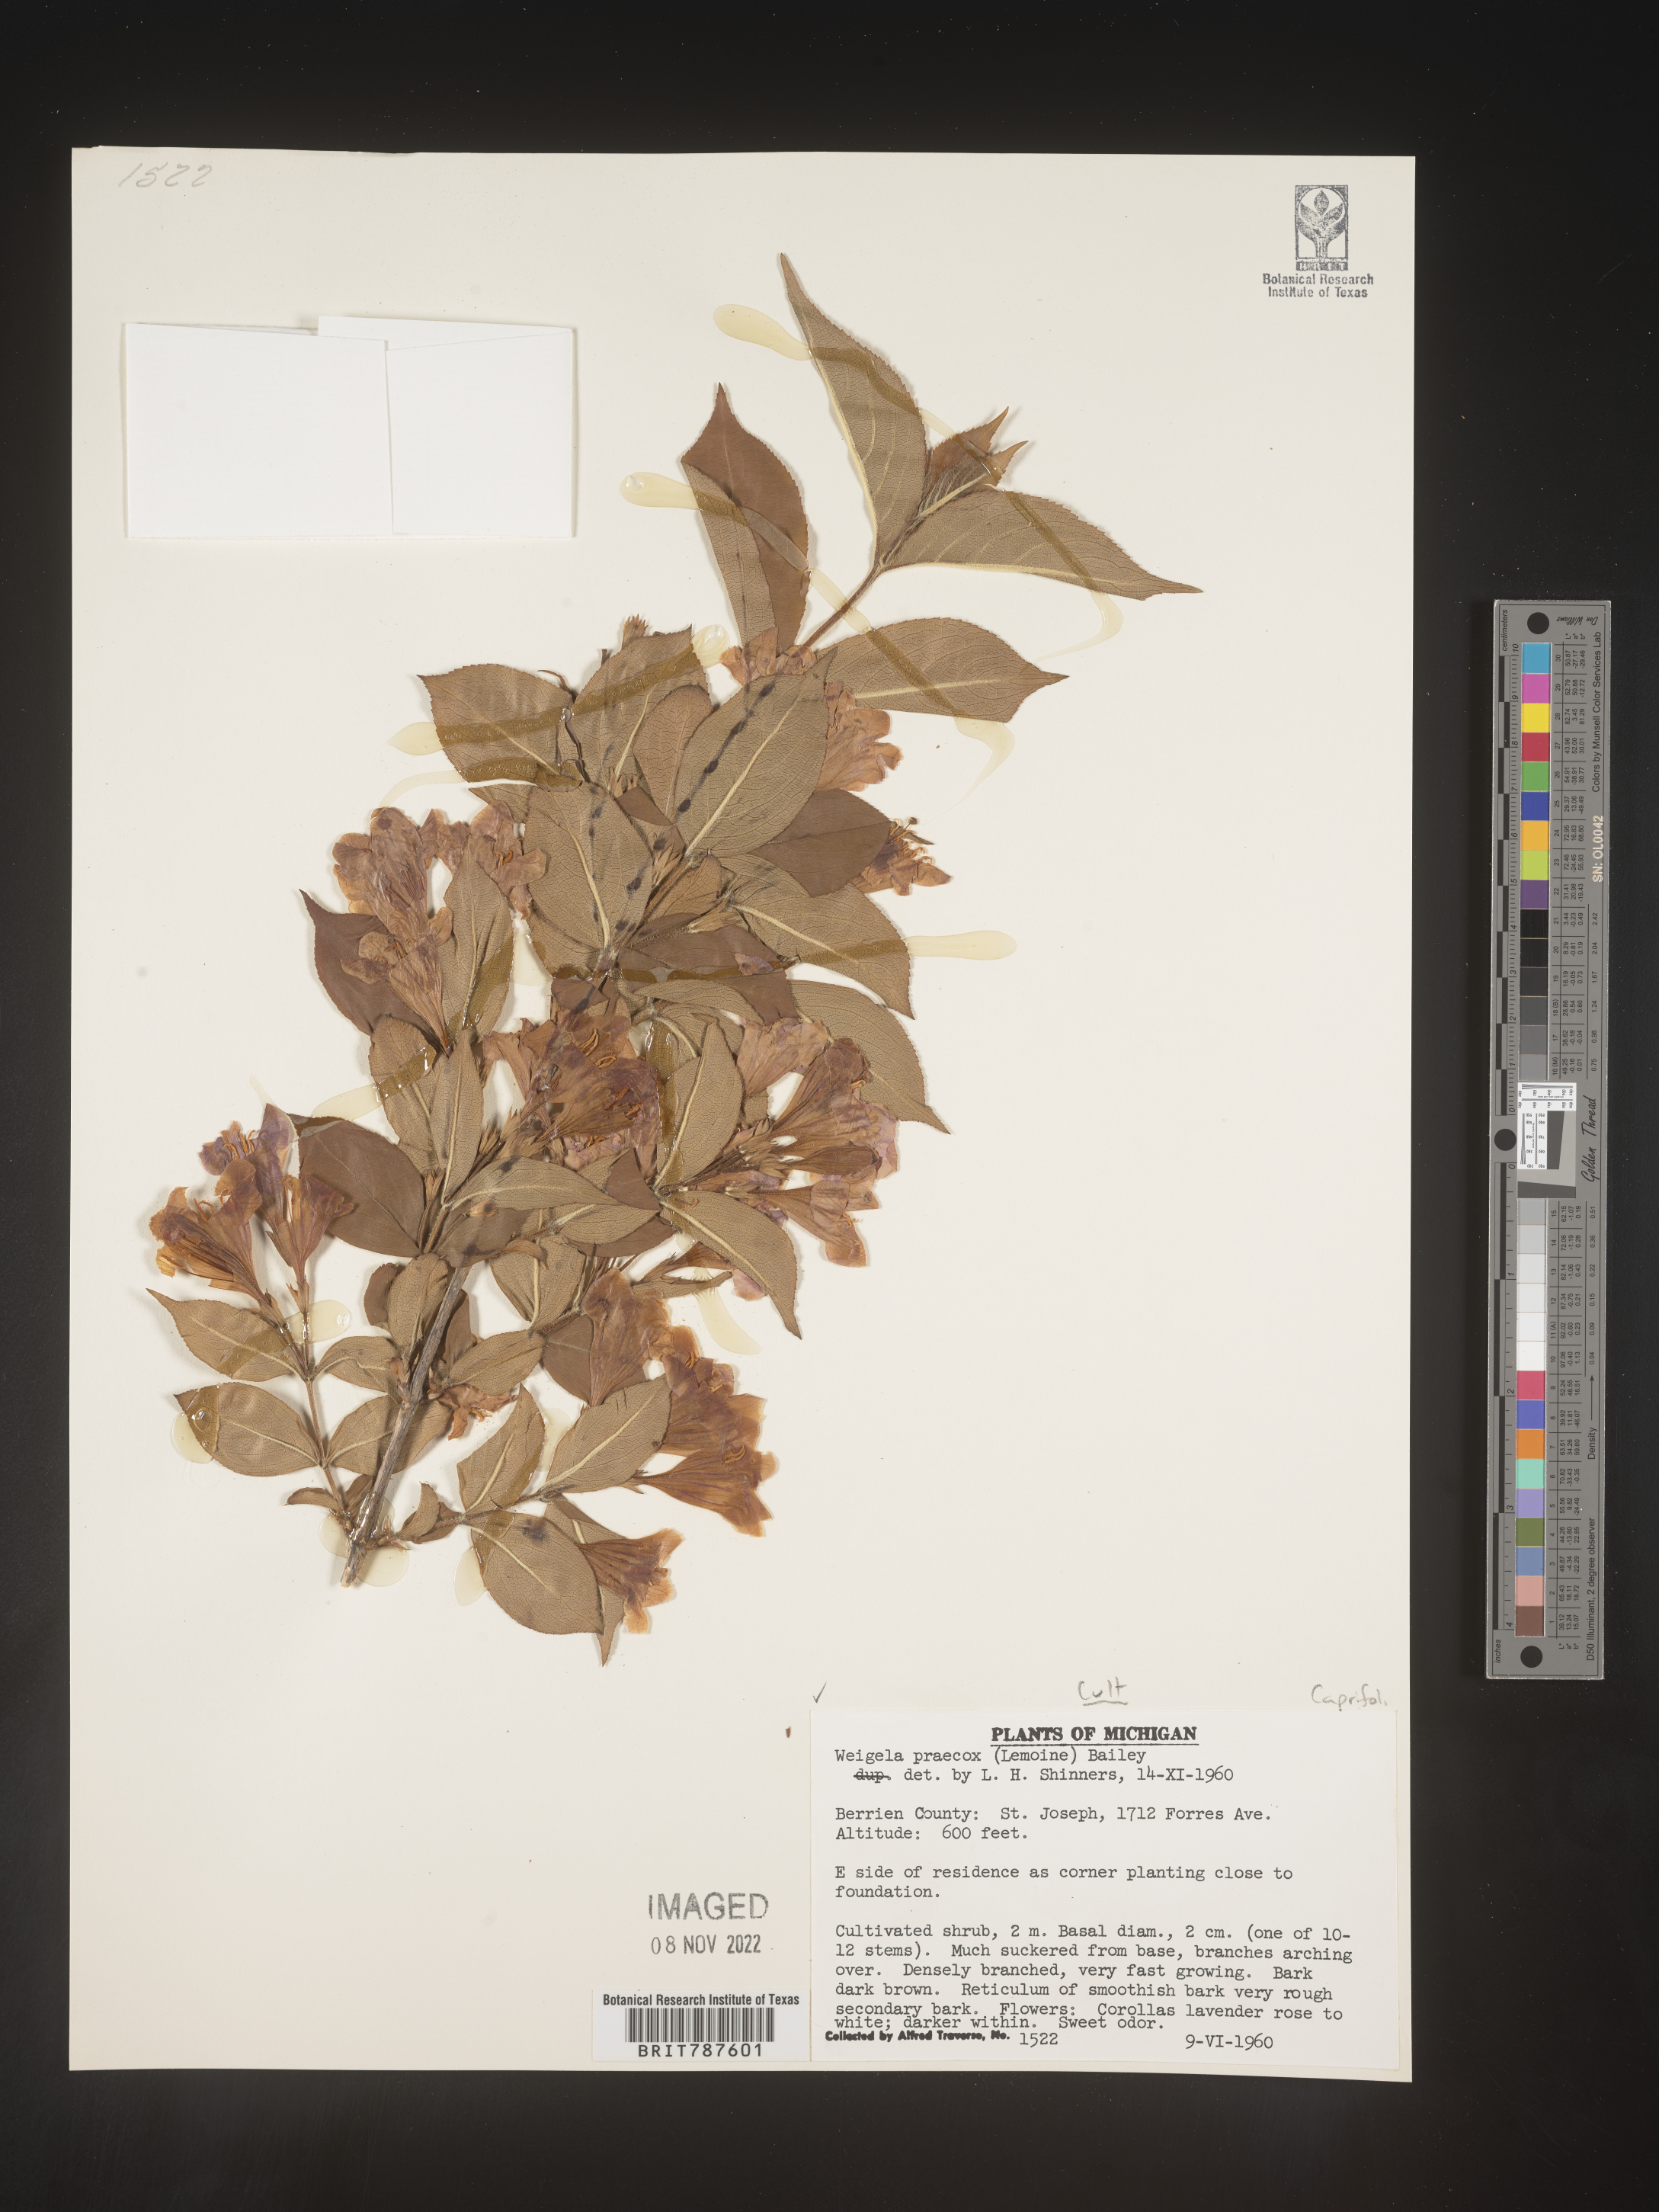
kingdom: Plantae
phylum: Tracheophyta
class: Magnoliopsida
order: Dipsacales
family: Caprifoliaceae
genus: Weigela
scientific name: Weigela
